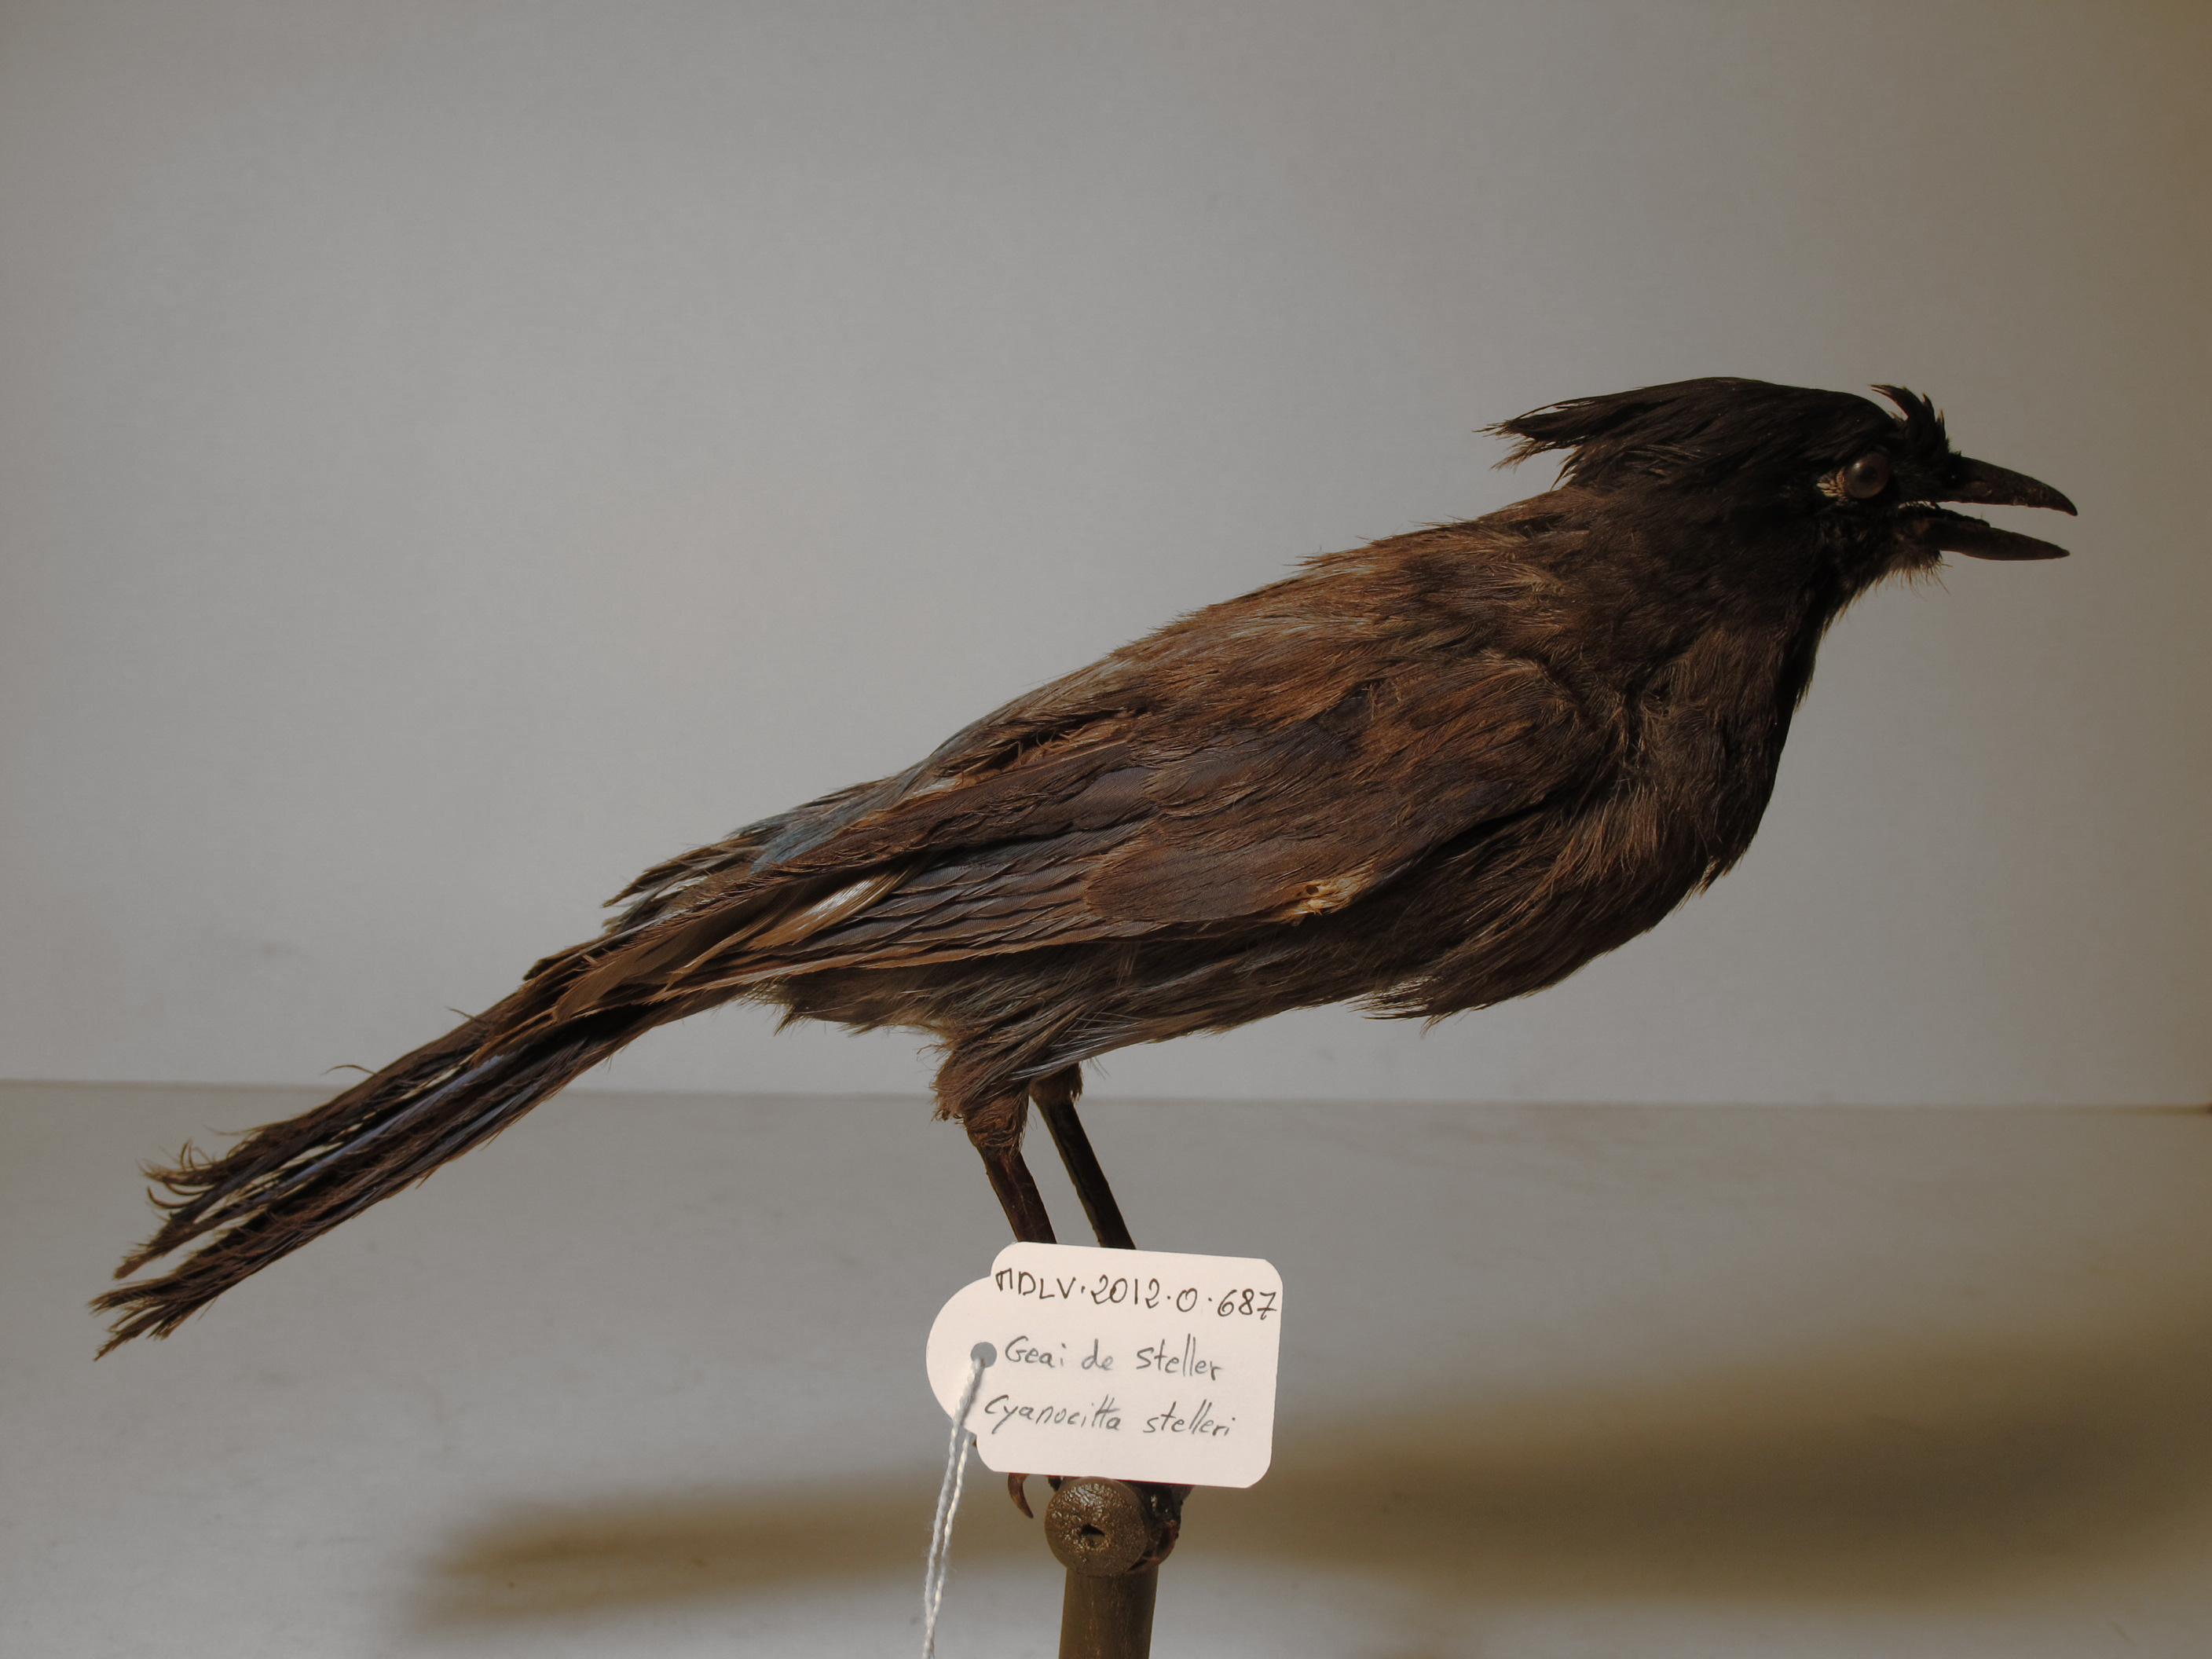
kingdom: Animalia
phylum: Chordata
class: Aves
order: Passeriformes
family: Corvidae
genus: Cyanocitta
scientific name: Cyanocitta stelleri
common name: Steller's Jay
